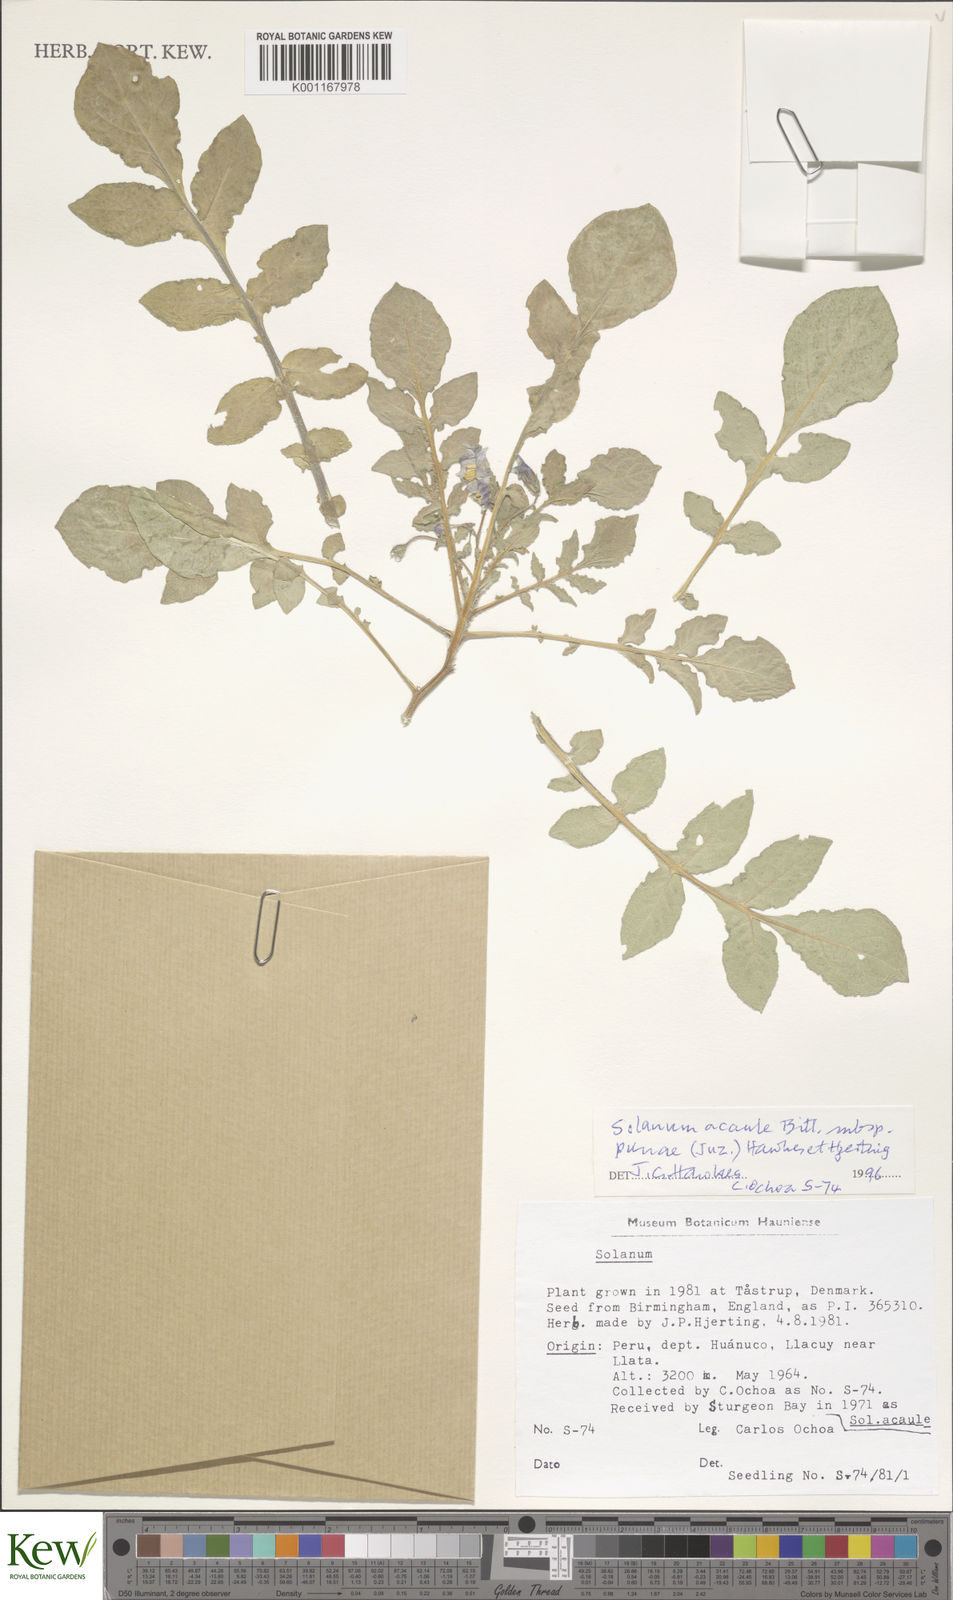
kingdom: Plantae
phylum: Tracheophyta
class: Magnoliopsida
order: Solanales
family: Solanaceae
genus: Solanum
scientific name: Solanum acaule
